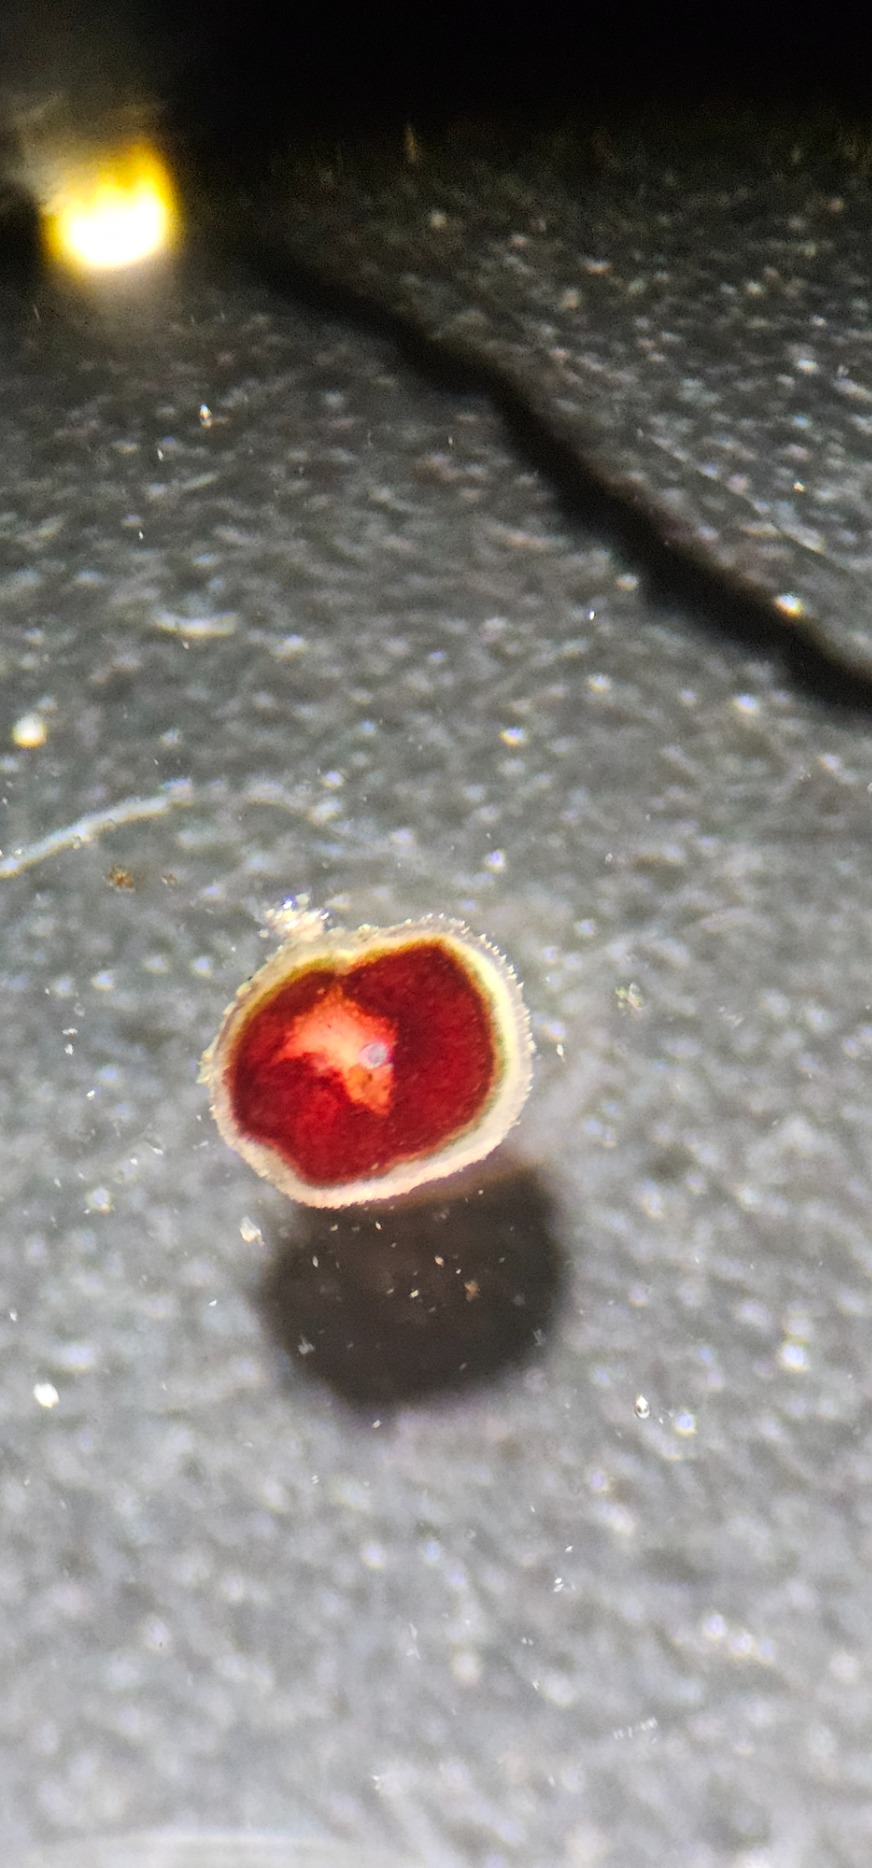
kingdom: Fungi
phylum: Ascomycota
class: Lecanoromycetes
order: Teloschistales
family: Teloschistaceae
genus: Caloplaca
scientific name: Caloplaca cerina
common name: Voksgul orangelav
